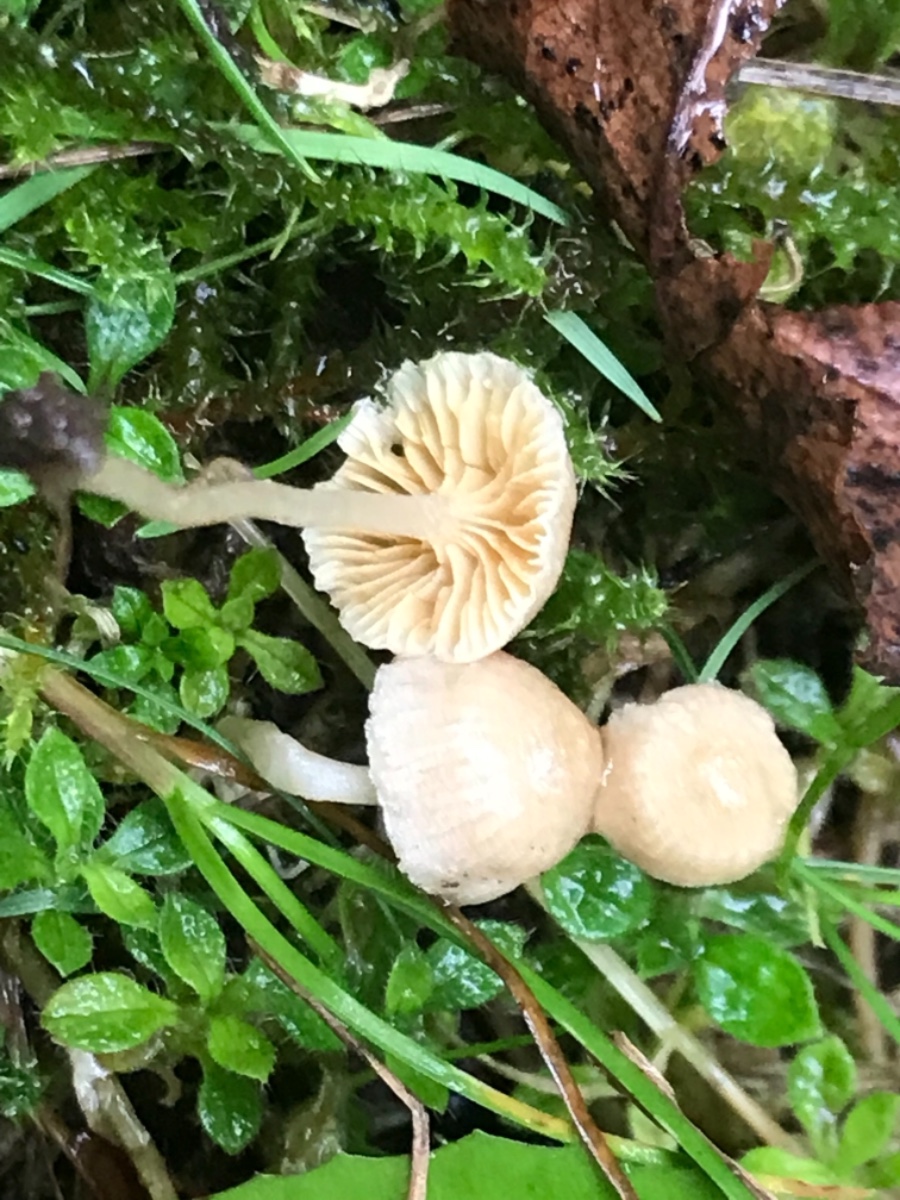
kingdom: Fungi
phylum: Basidiomycota
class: Agaricomycetes
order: Agaricales
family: Tubariaceae
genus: Tubaria
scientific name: Tubaria dispersa
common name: tjørne-fnughat
